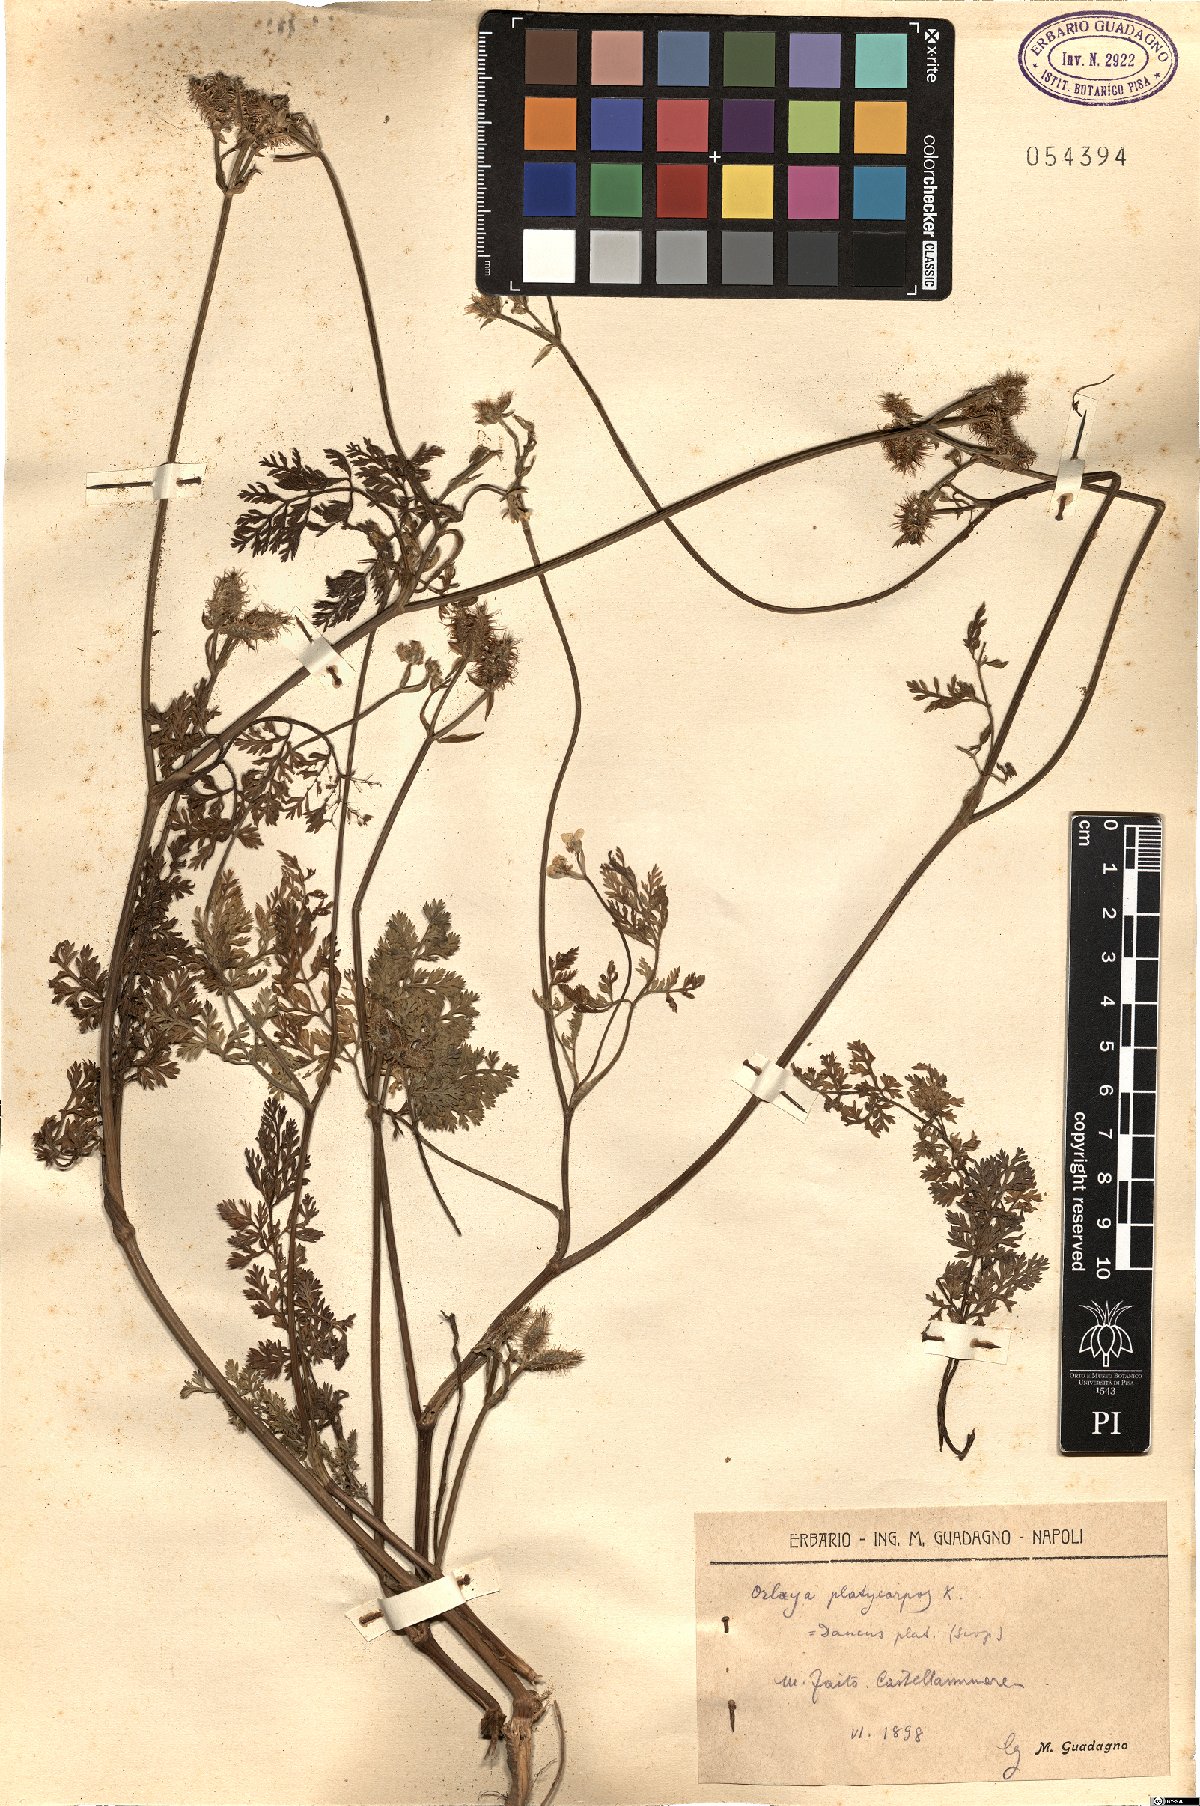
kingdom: Plantae
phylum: Tracheophyta
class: Magnoliopsida
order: Apiales
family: Apiaceae
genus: Orlaya
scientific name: Orlaya daucoides
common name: Flat-fruit orlaya
